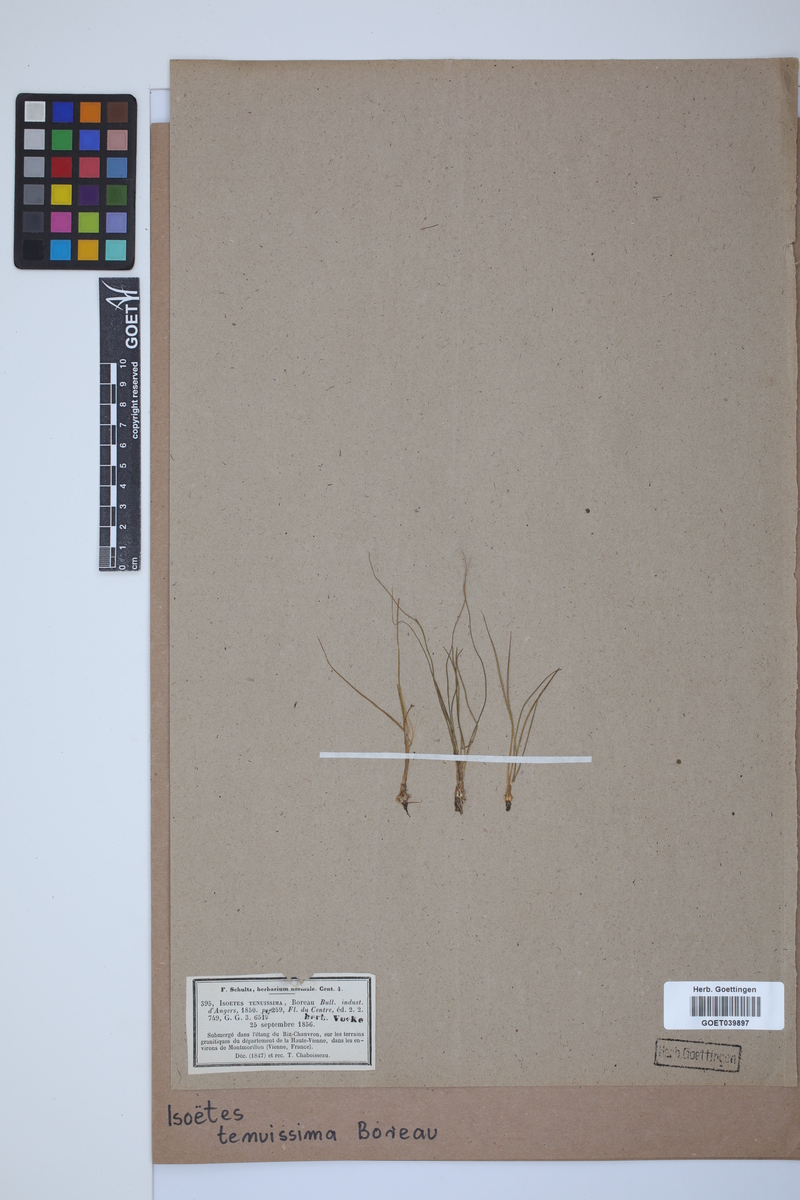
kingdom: Plantae
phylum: Tracheophyta
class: Lycopodiopsida
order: Isoetales
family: Isoetaceae
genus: Isoetes
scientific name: Isoetes muelleri
